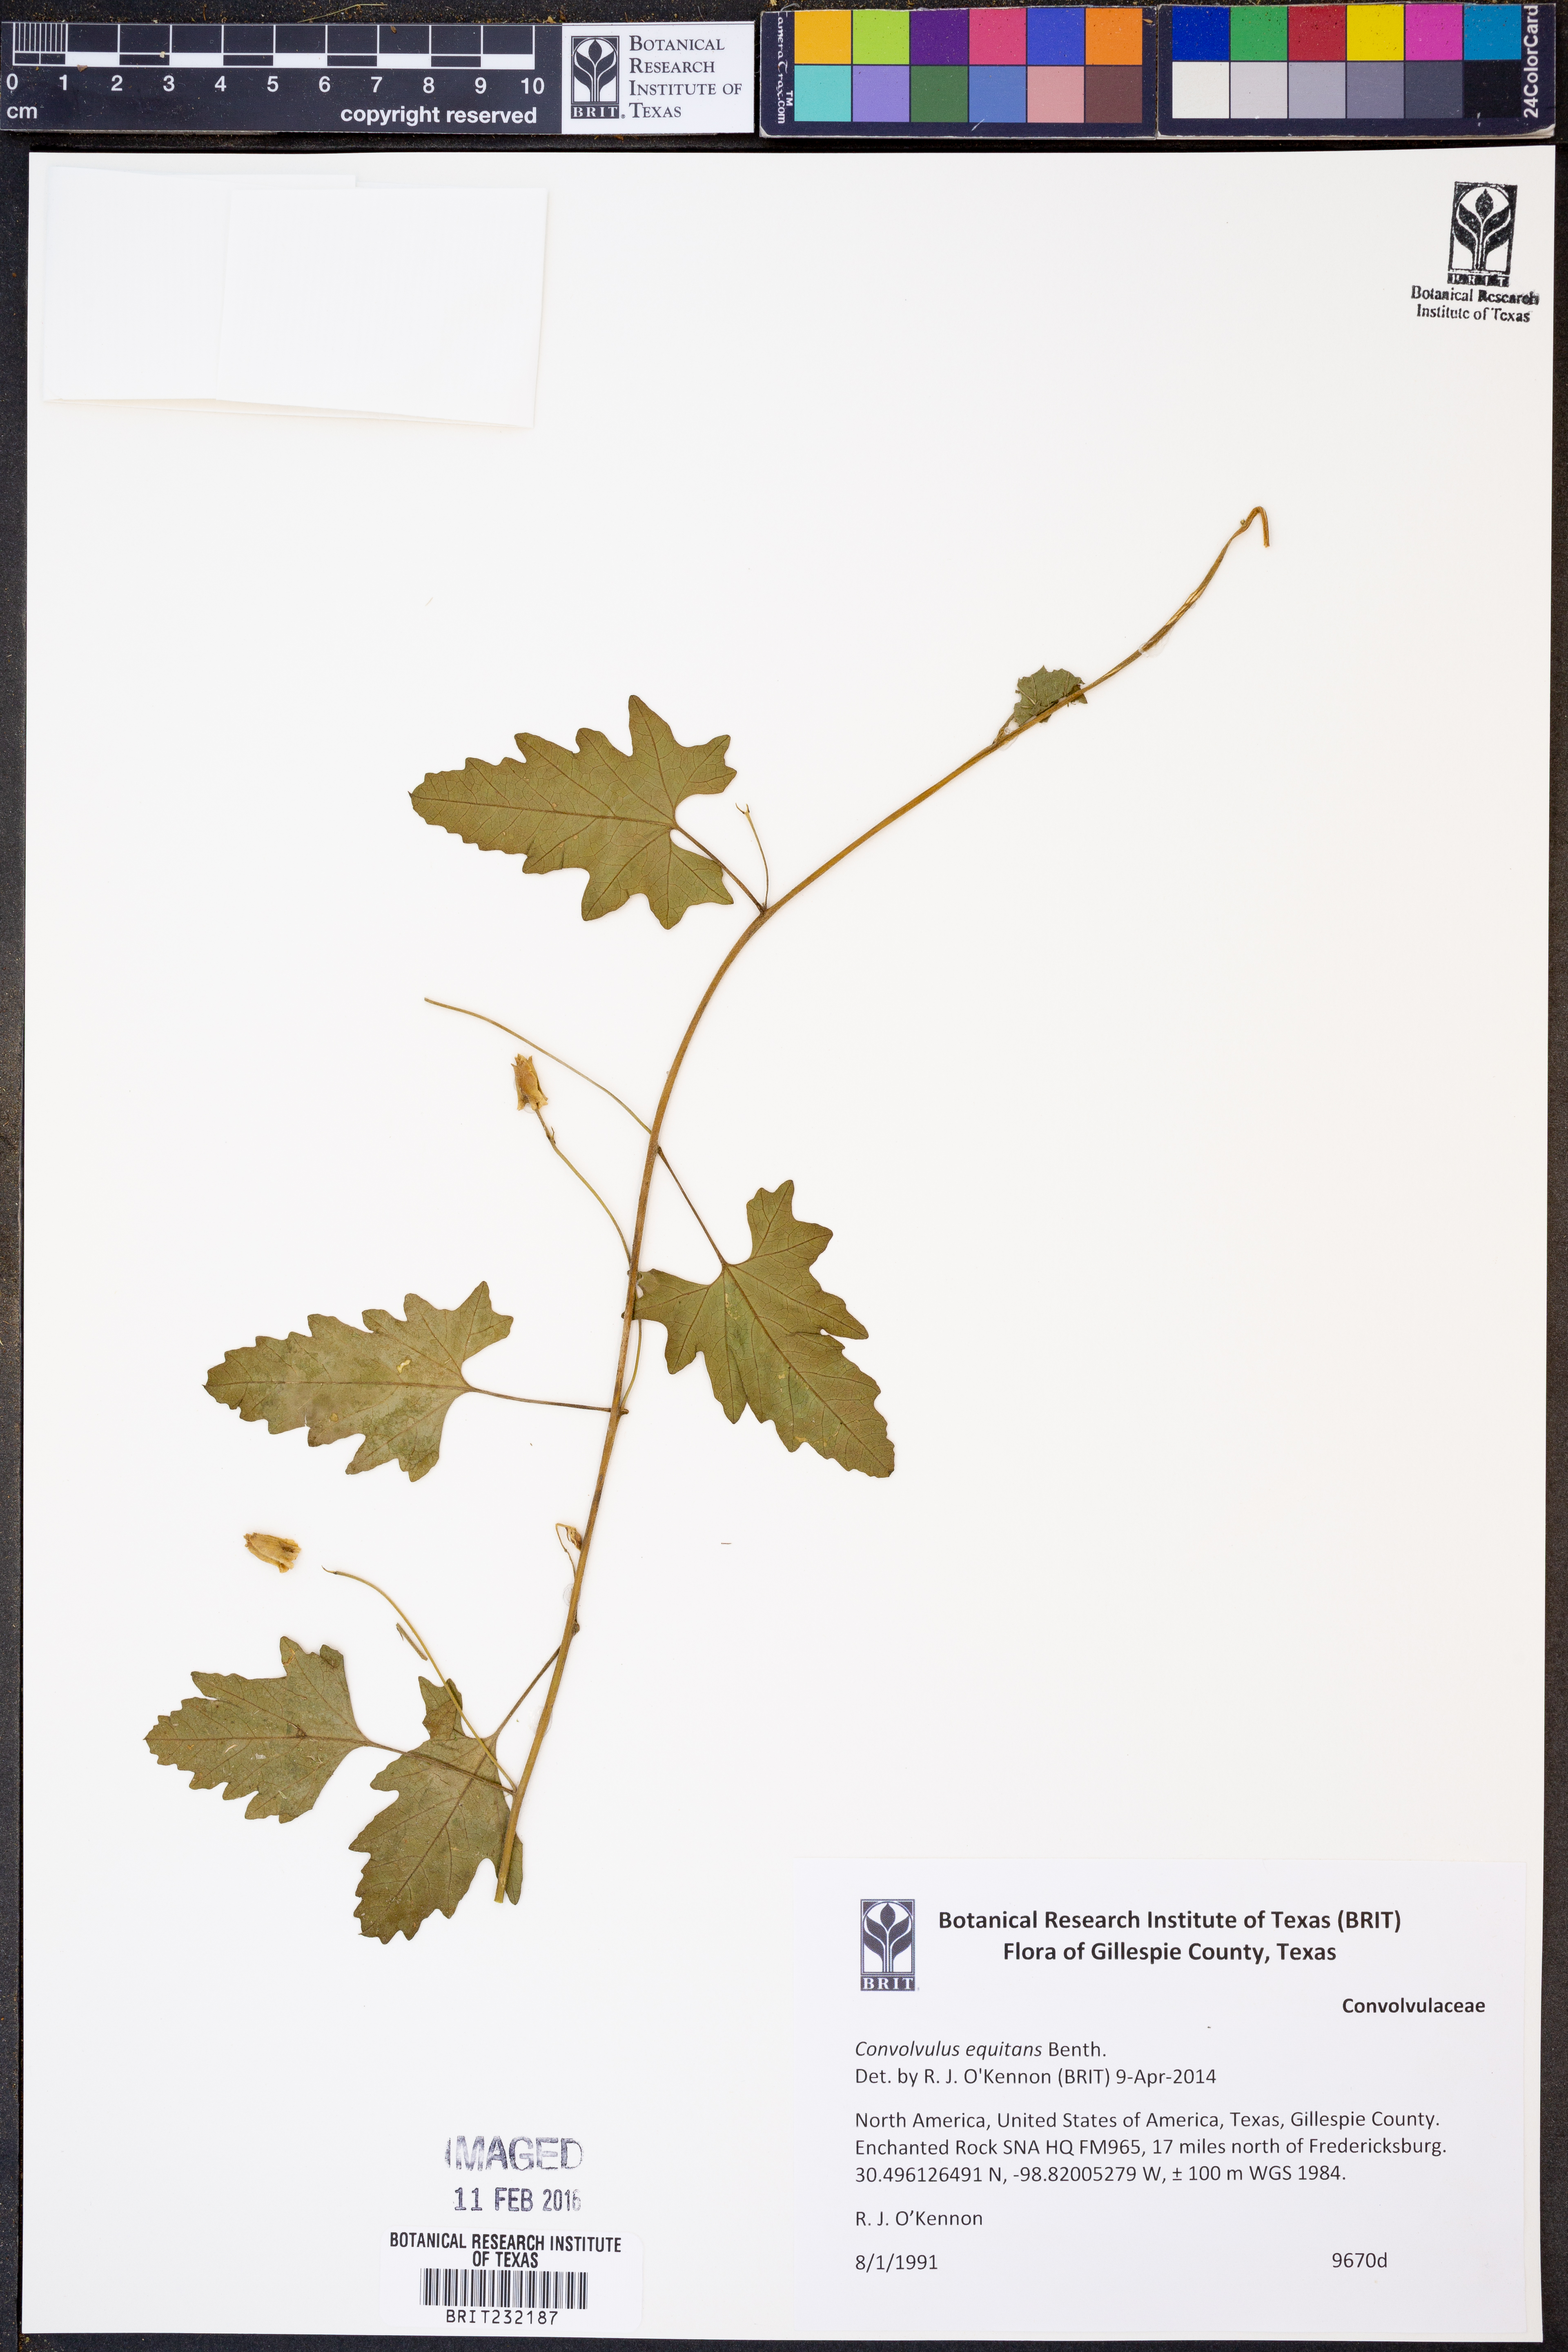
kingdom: Plantae
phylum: Tracheophyta
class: Magnoliopsida
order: Solanales
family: Convolvulaceae
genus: Convolvulus
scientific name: Convolvulus equitans
